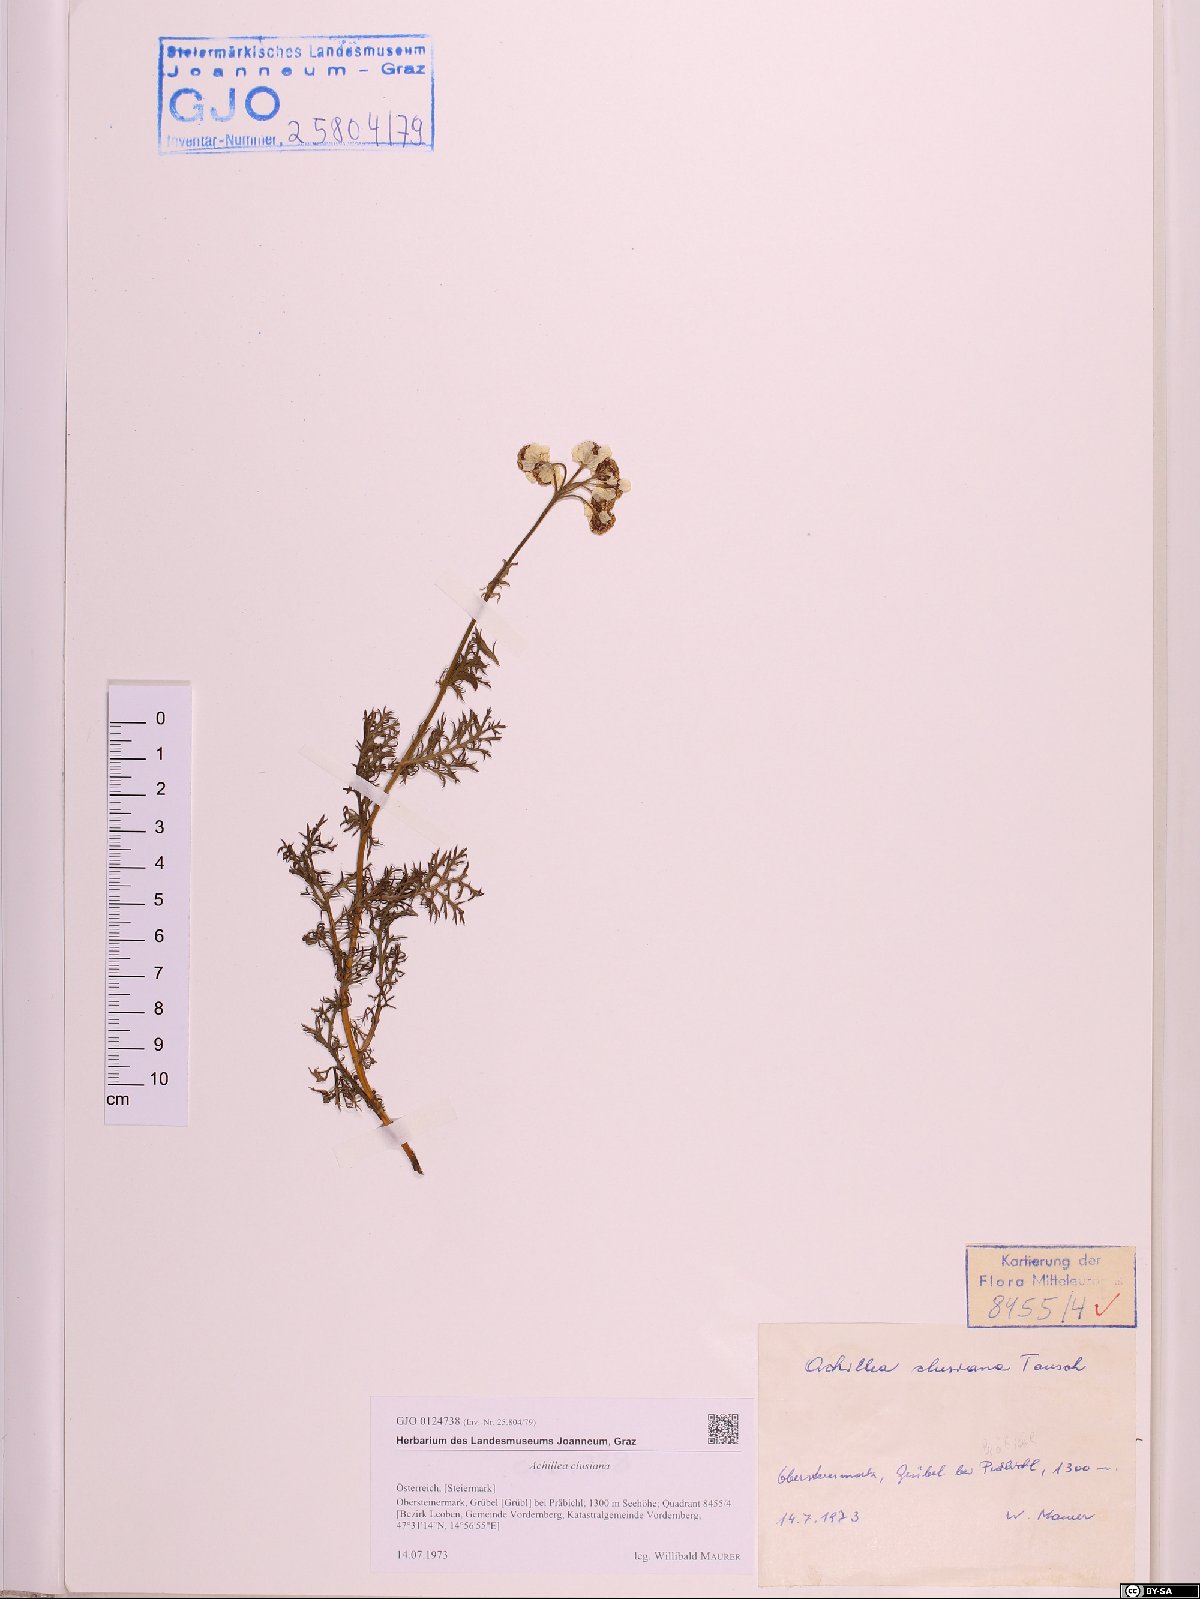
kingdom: Plantae
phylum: Tracheophyta
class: Magnoliopsida
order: Asterales
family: Asteraceae
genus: Achillea
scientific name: Achillea clusiana
